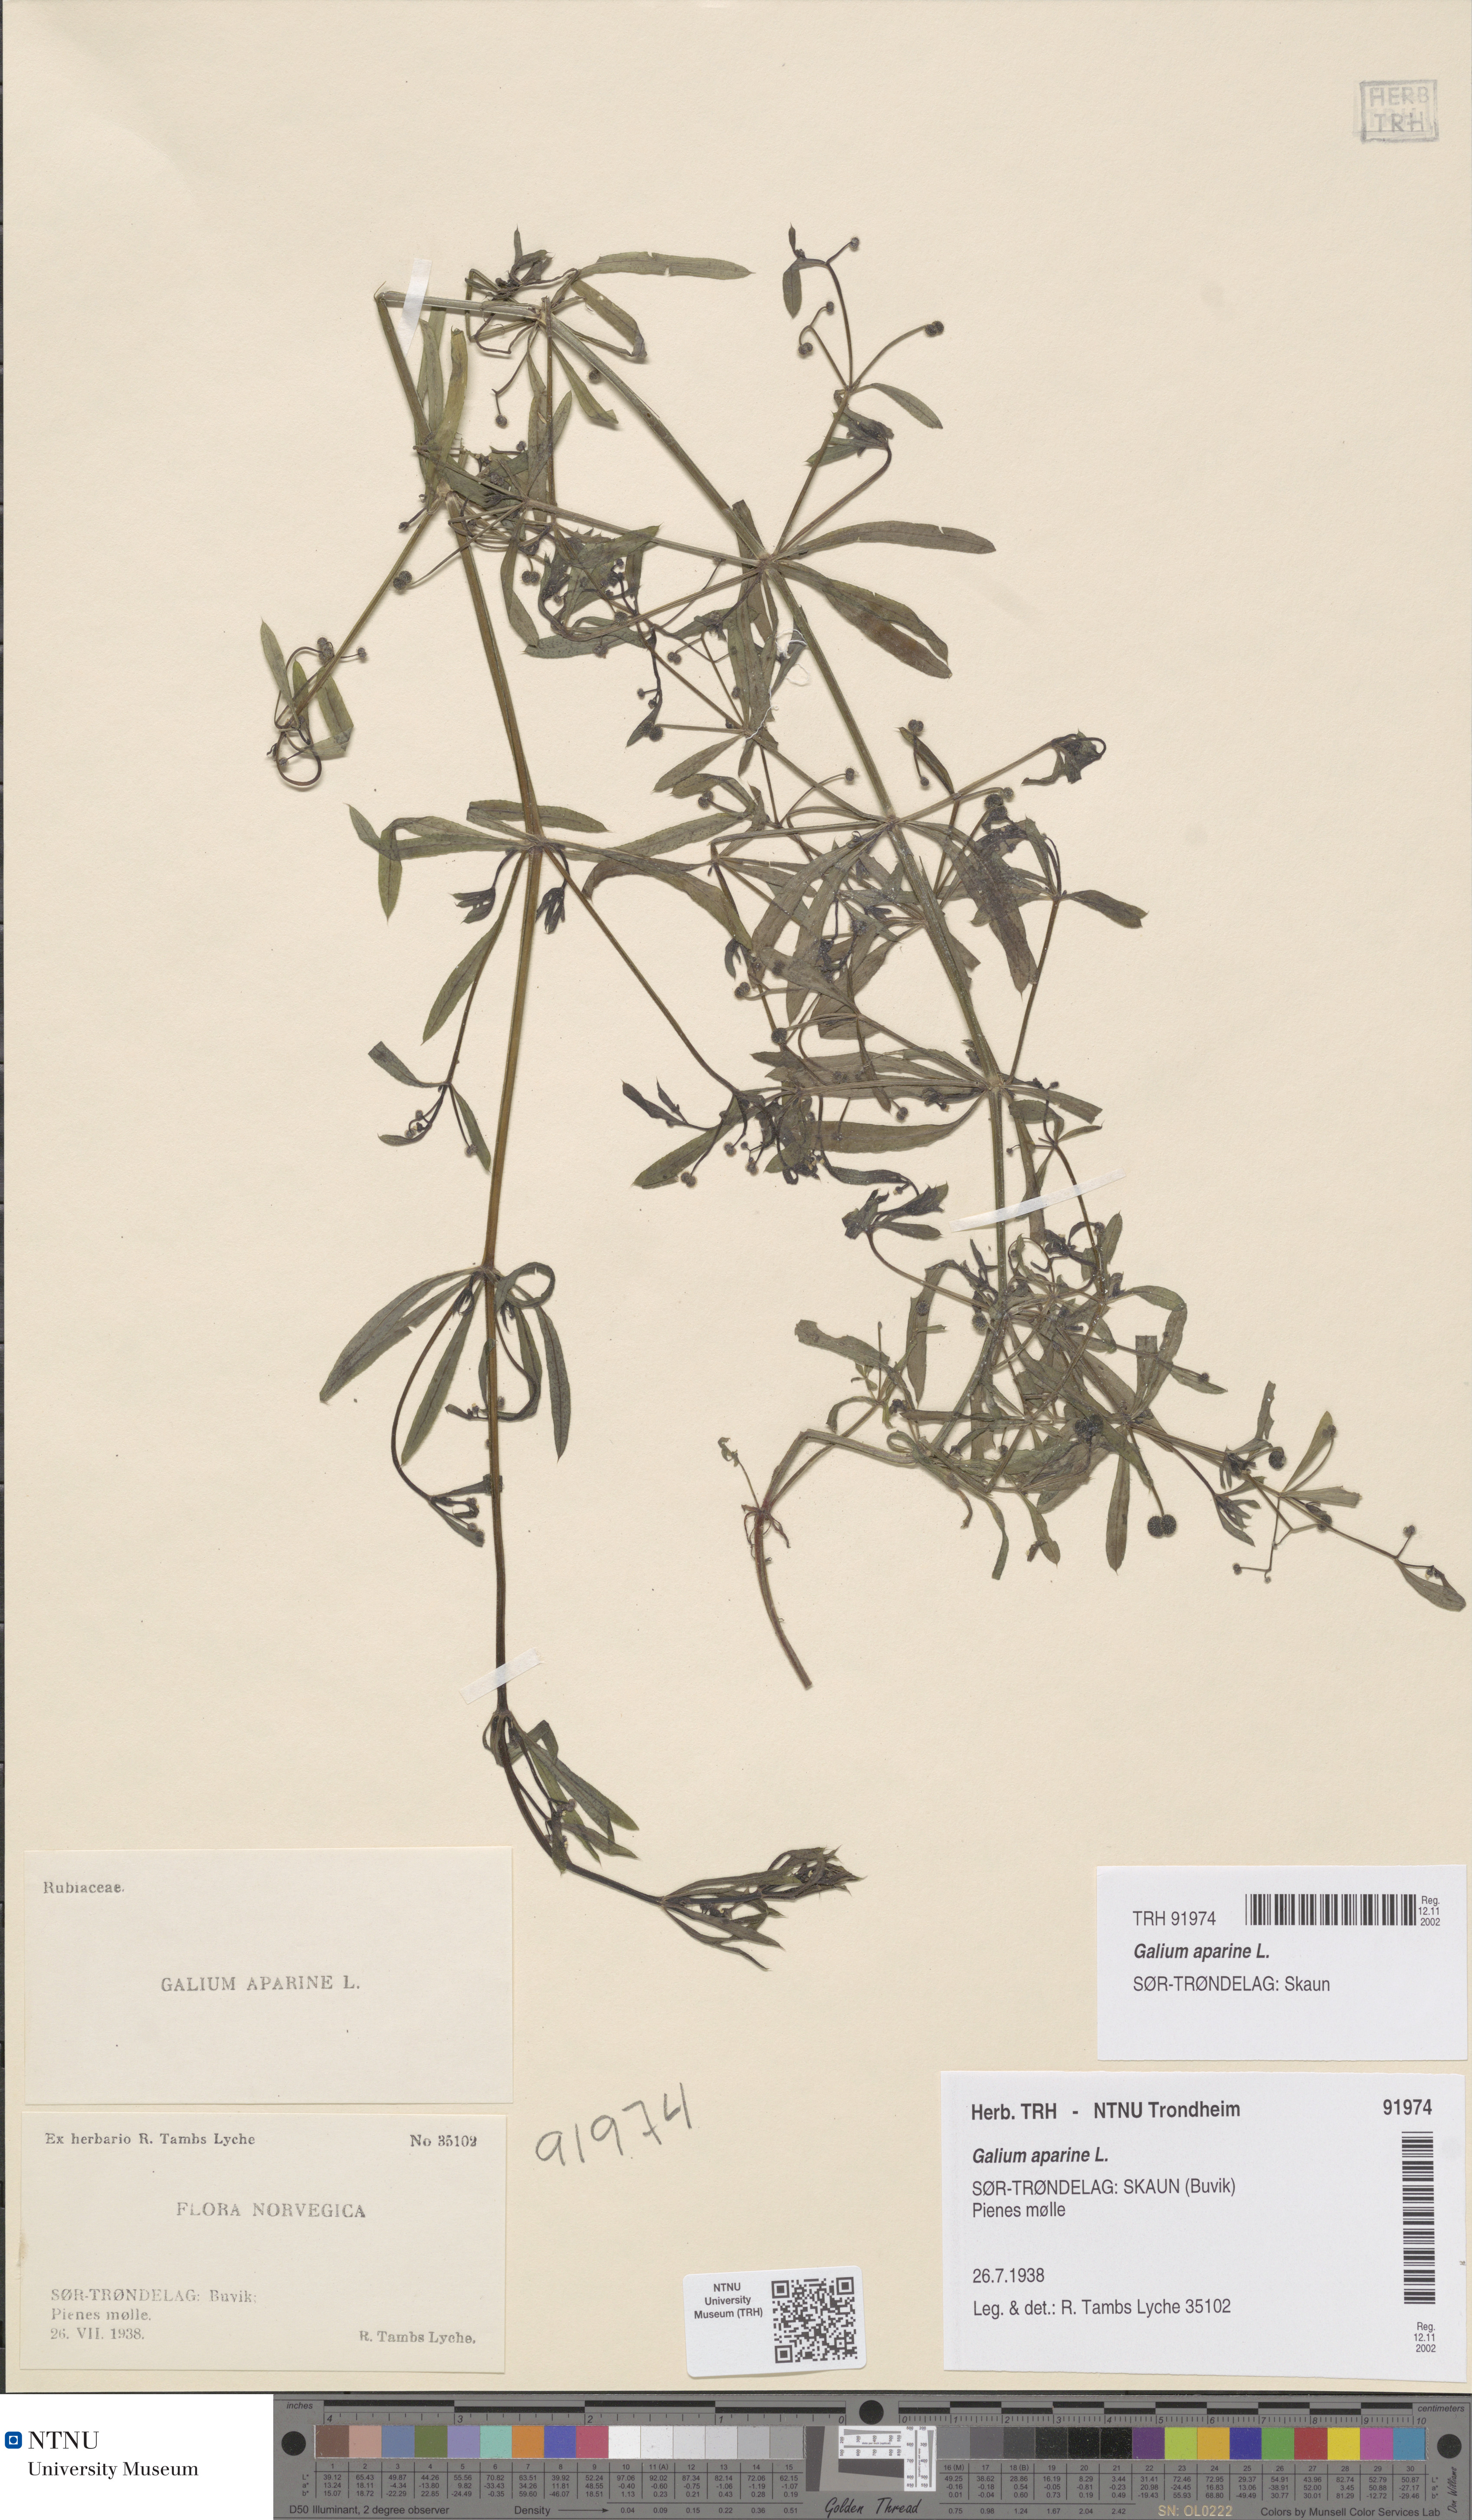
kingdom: Plantae
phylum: Tracheophyta
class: Magnoliopsida
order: Gentianales
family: Rubiaceae
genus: Galium
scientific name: Galium aparine
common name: Cleavers
